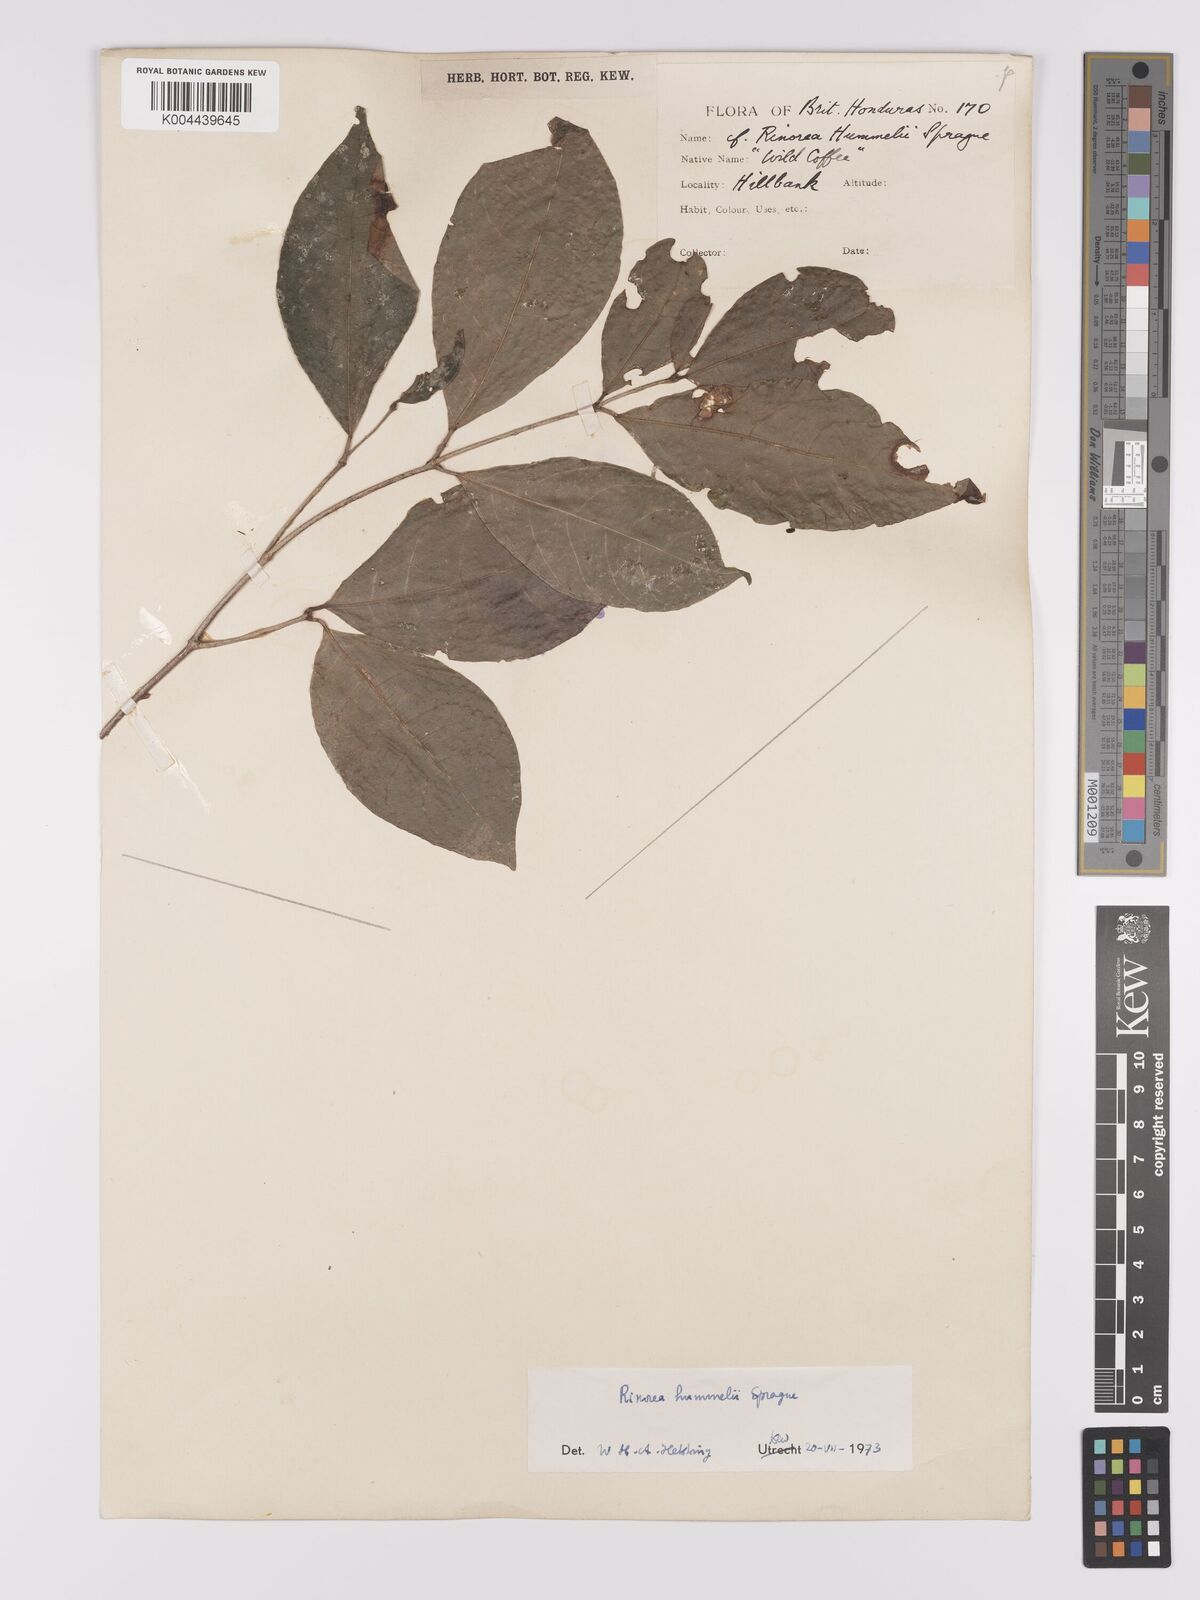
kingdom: Plantae
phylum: Tracheophyta
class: Magnoliopsida
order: Malpighiales
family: Violaceae
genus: Rinorea
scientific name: Rinorea hummelii
